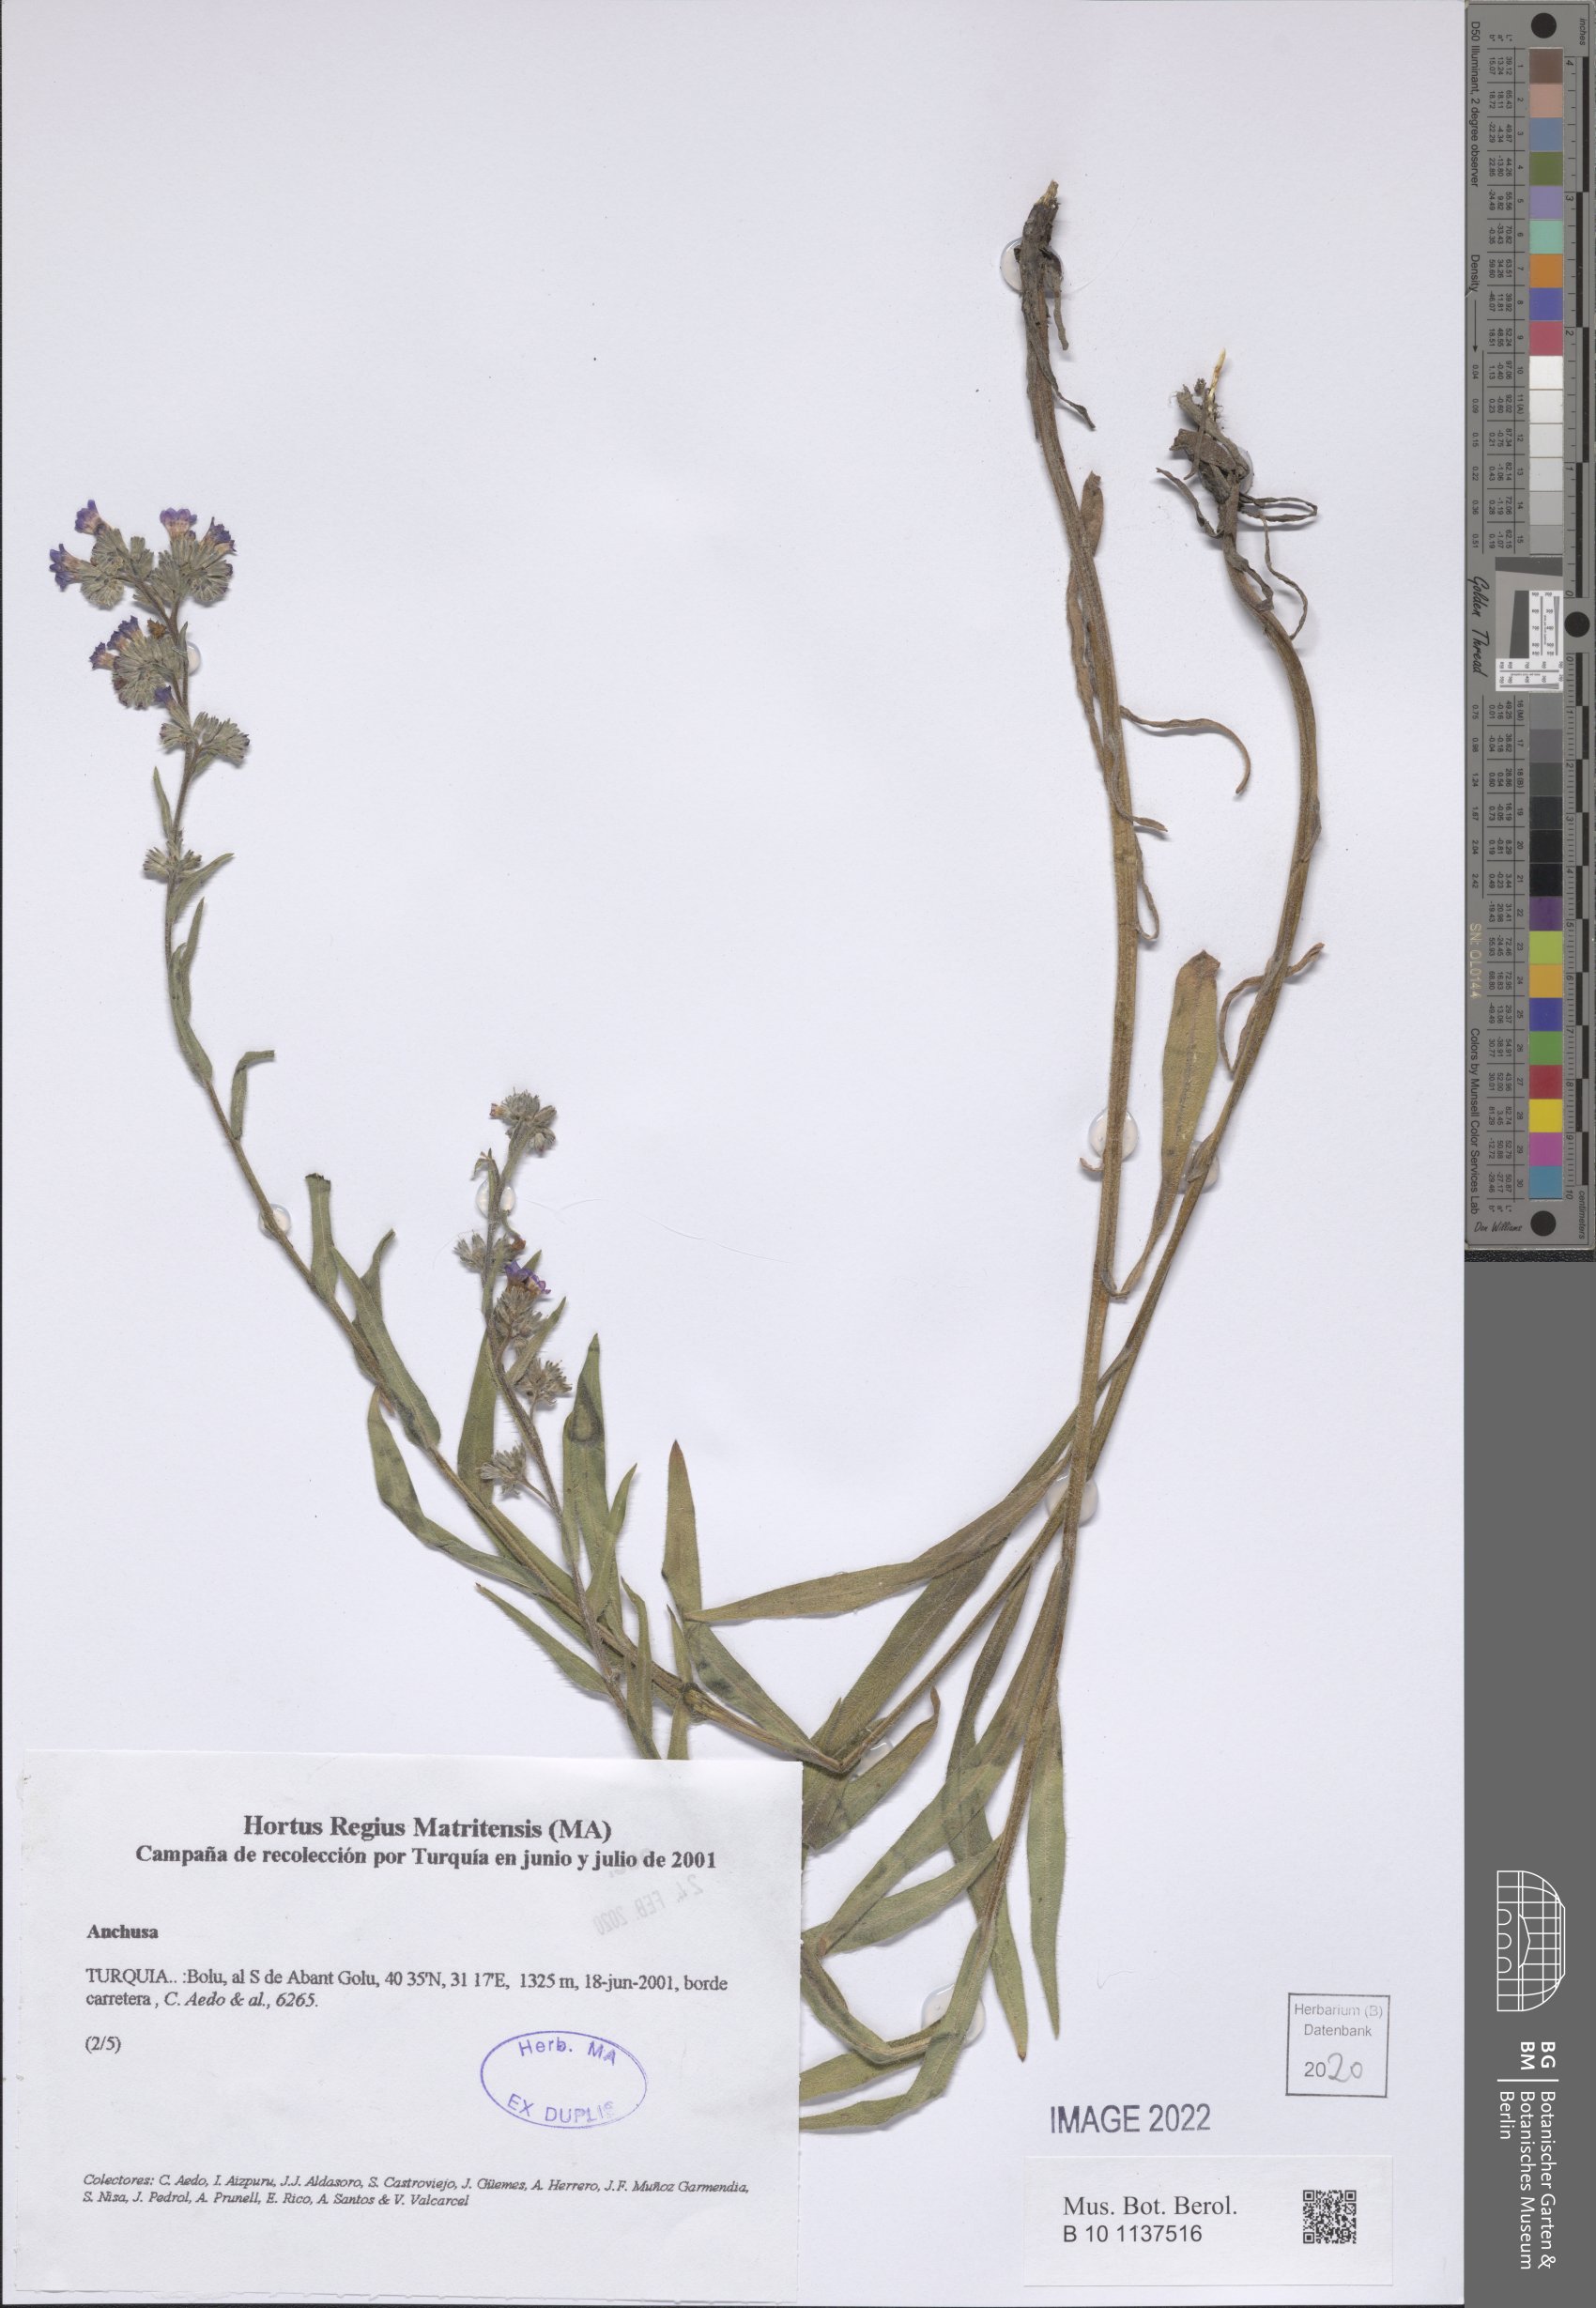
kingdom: Plantae
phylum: Tracheophyta
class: Magnoliopsida
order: Boraginales
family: Boraginaceae
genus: Anchusa
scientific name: Anchusa
